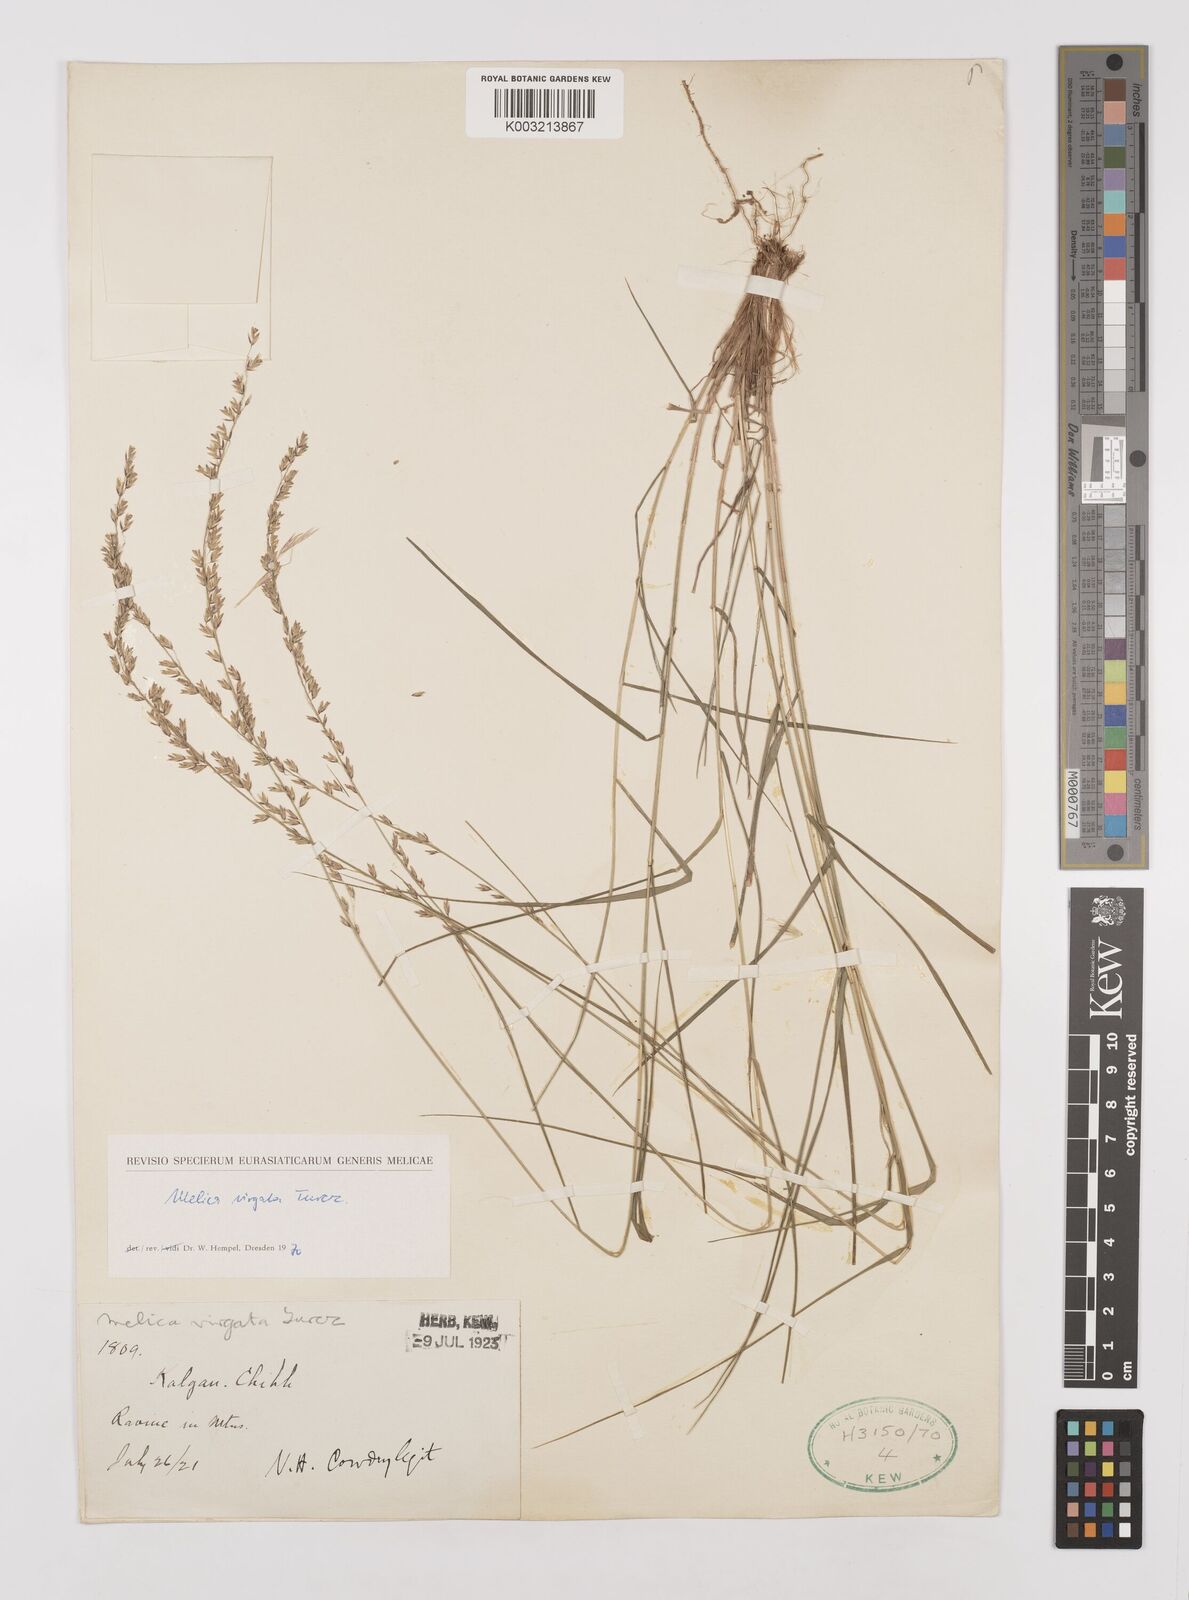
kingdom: Plantae
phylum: Tracheophyta
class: Liliopsida
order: Poales
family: Poaceae
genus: Melica
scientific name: Melica virgata
